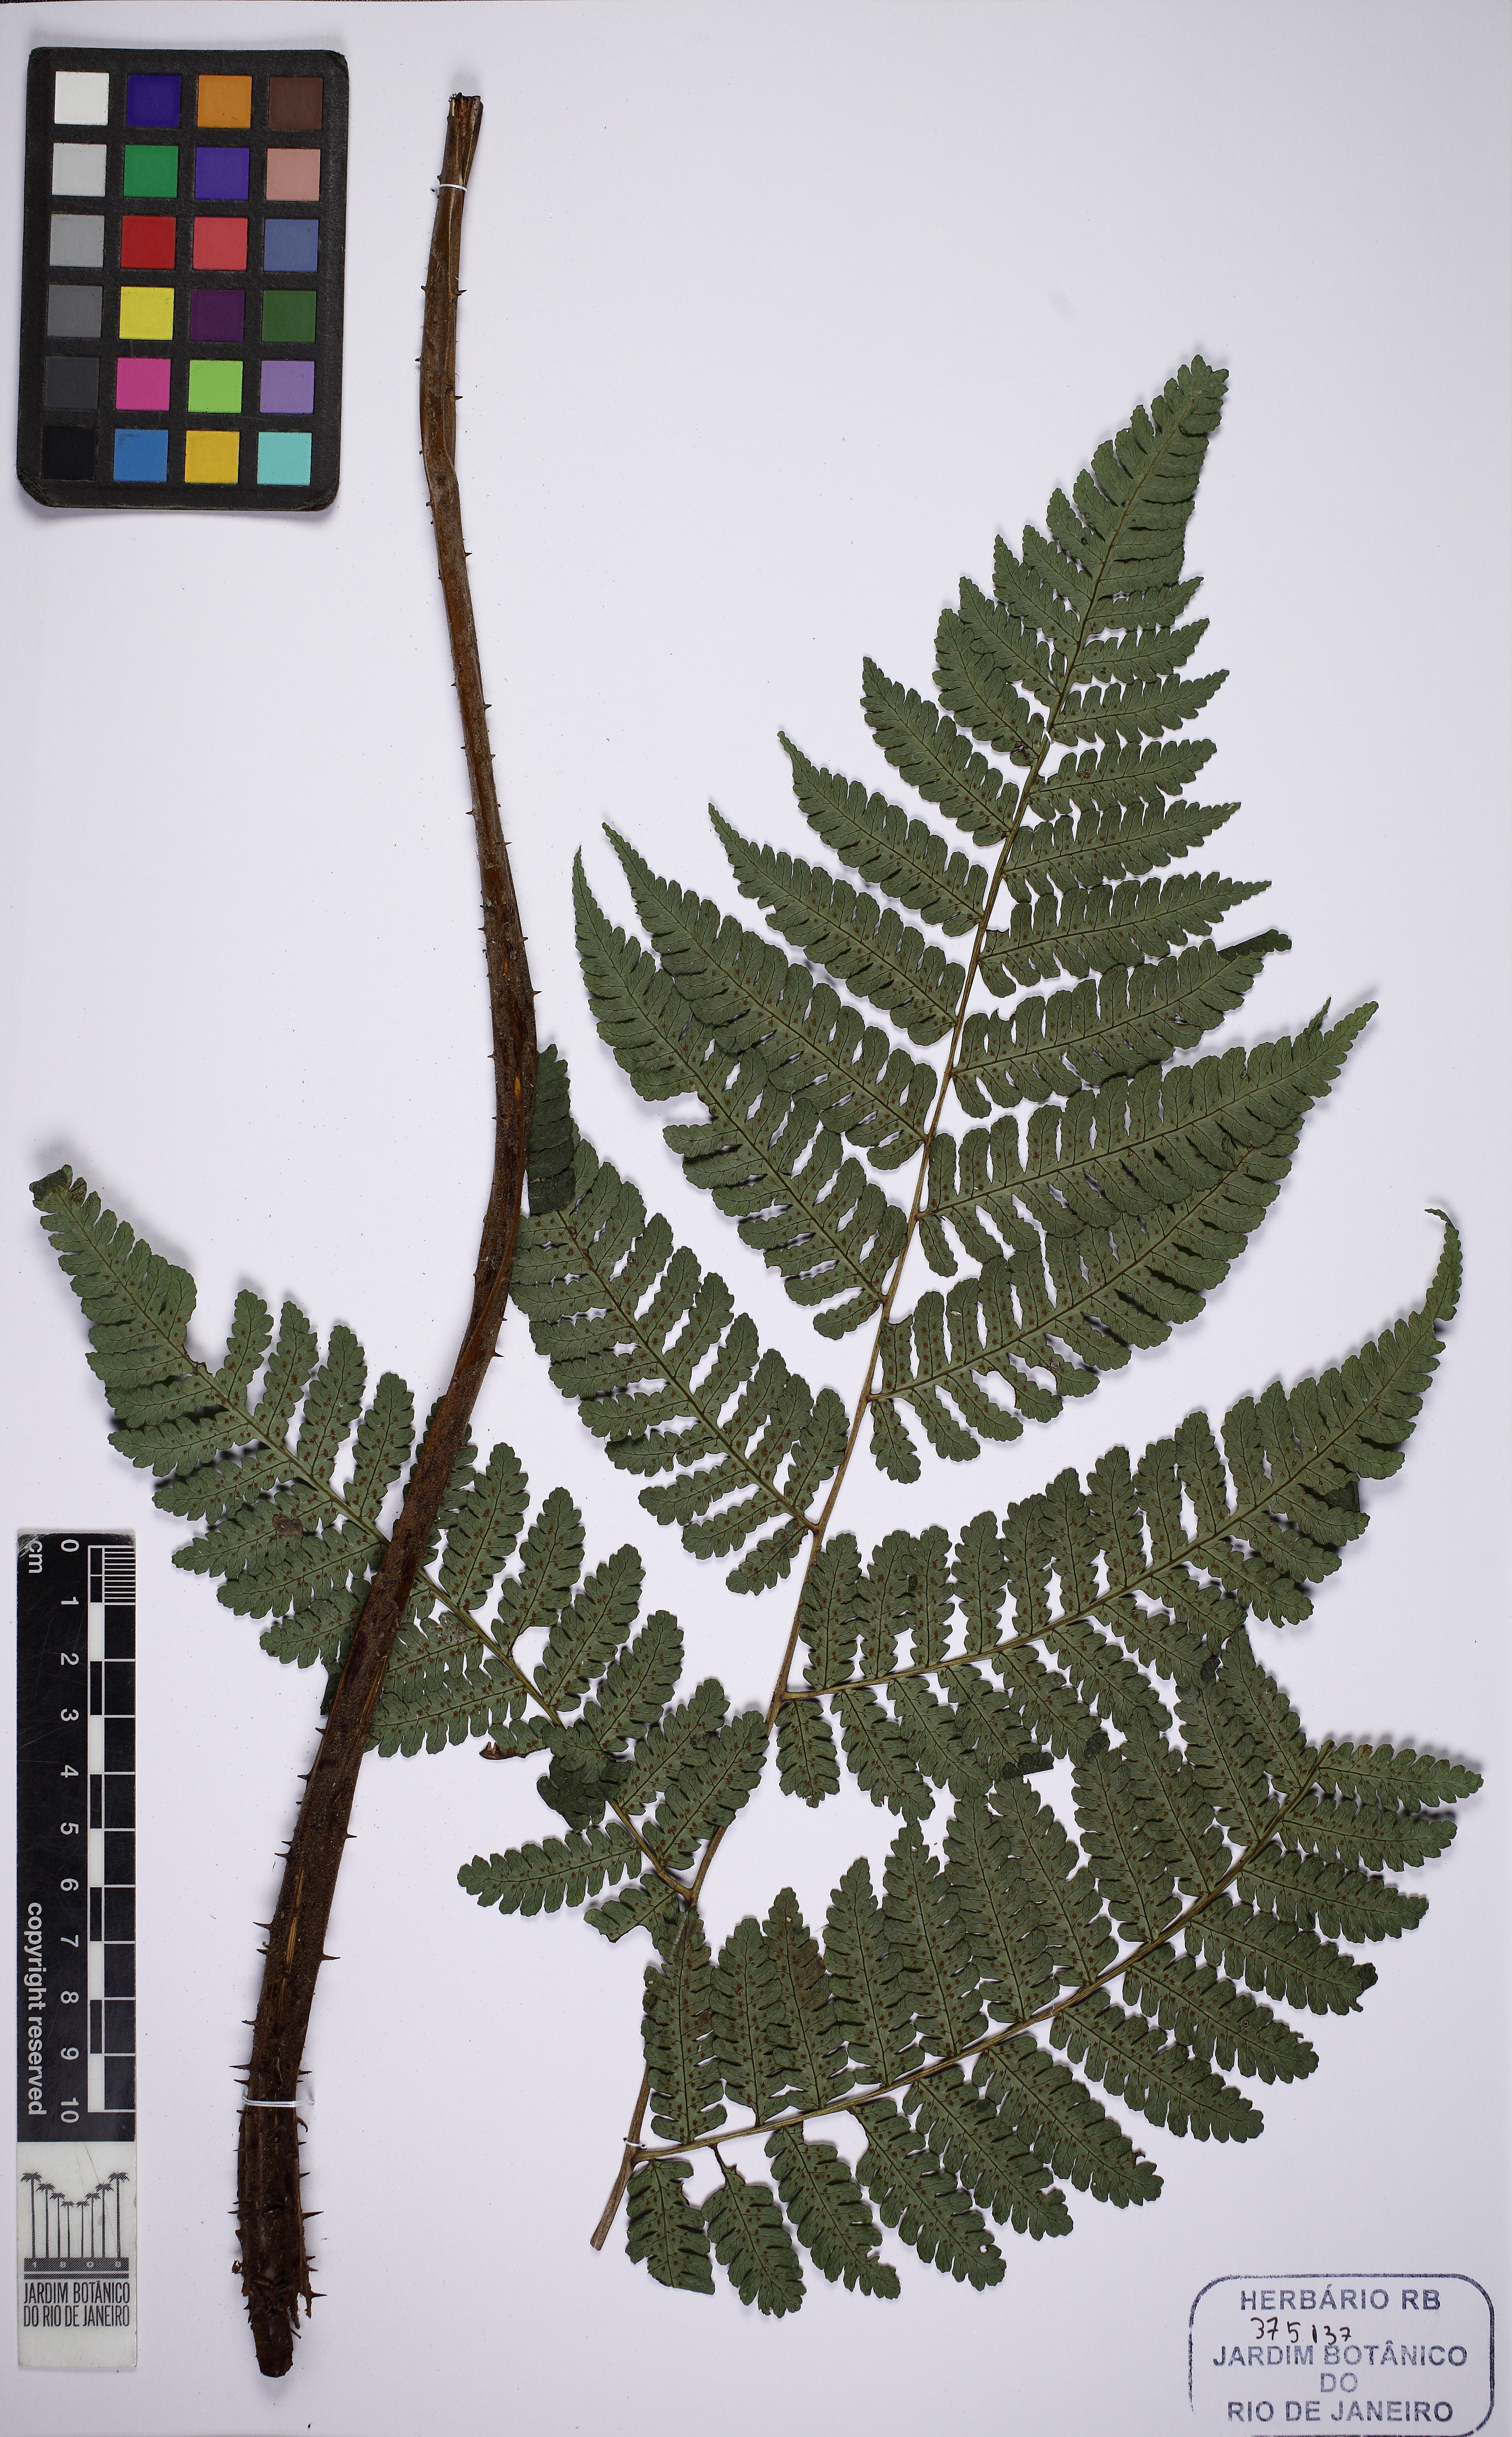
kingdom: Plantae
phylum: Tracheophyta
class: Polypodiopsida
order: Cyatheales
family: Cyatheaceae
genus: Cyathea
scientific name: Cyathea abbreviata
